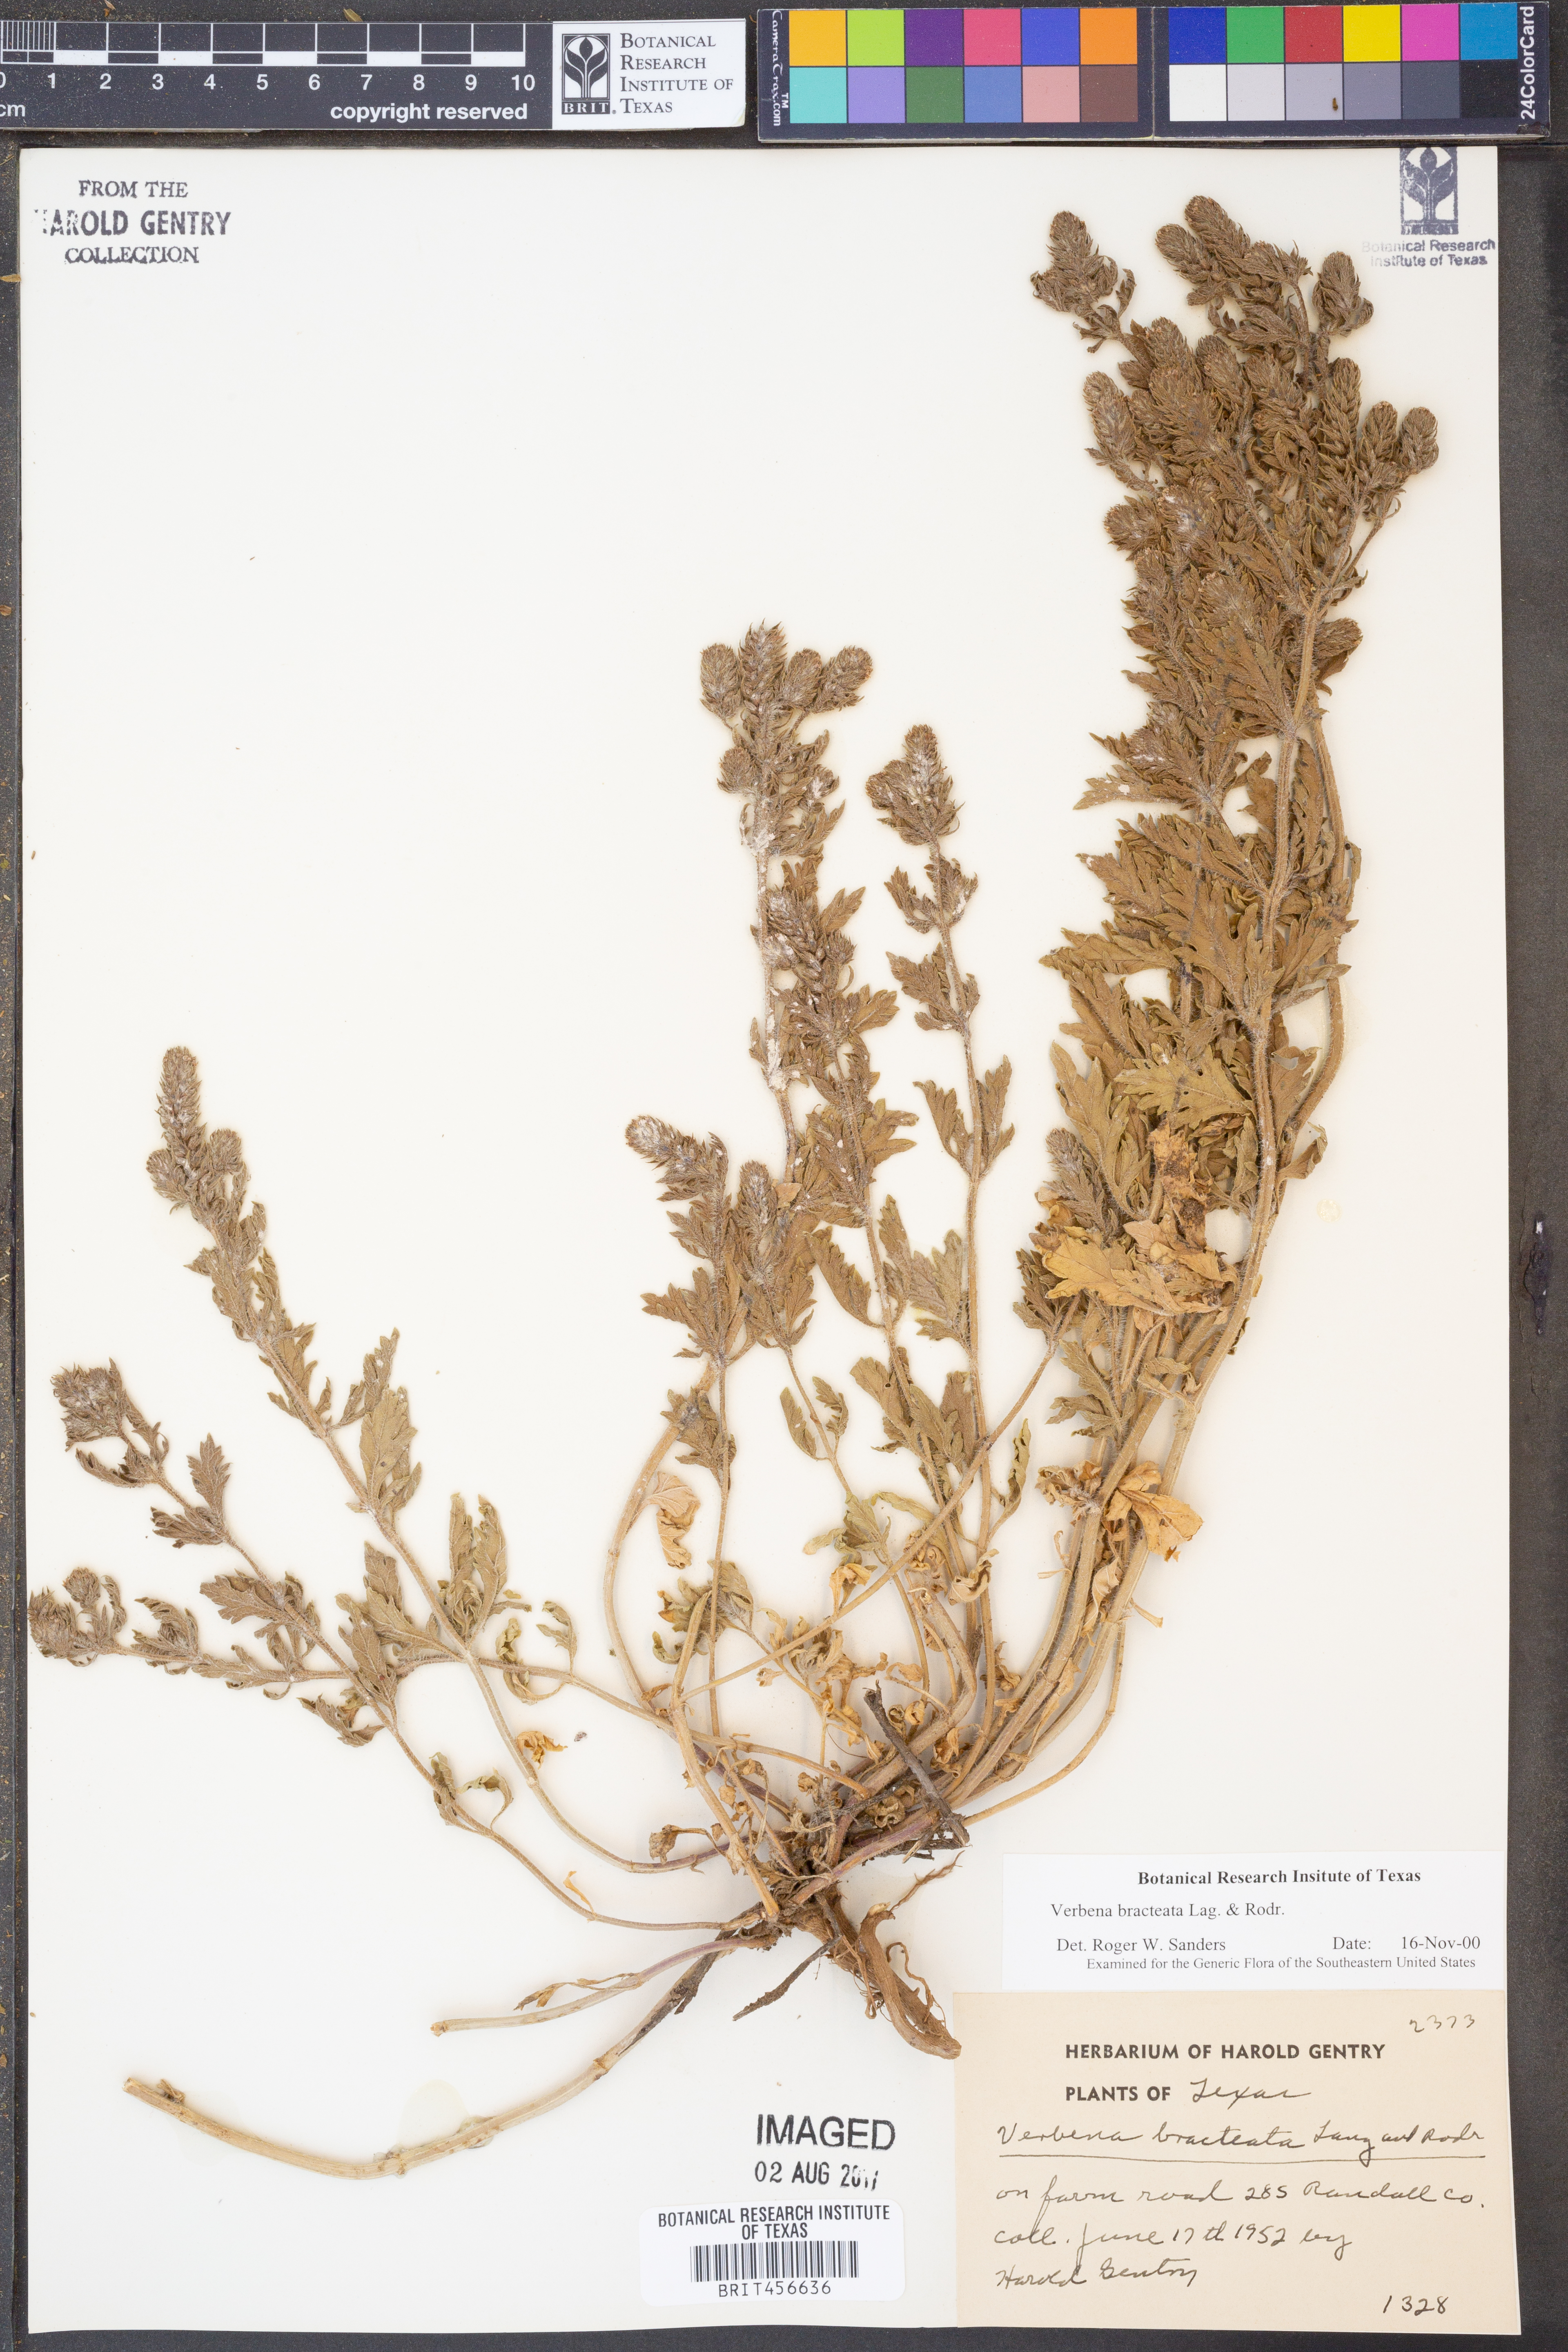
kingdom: Plantae
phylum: Tracheophyta
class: Magnoliopsida
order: Lamiales
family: Verbenaceae
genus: Verbena
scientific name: Verbena bracteata
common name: Bracted vervain
